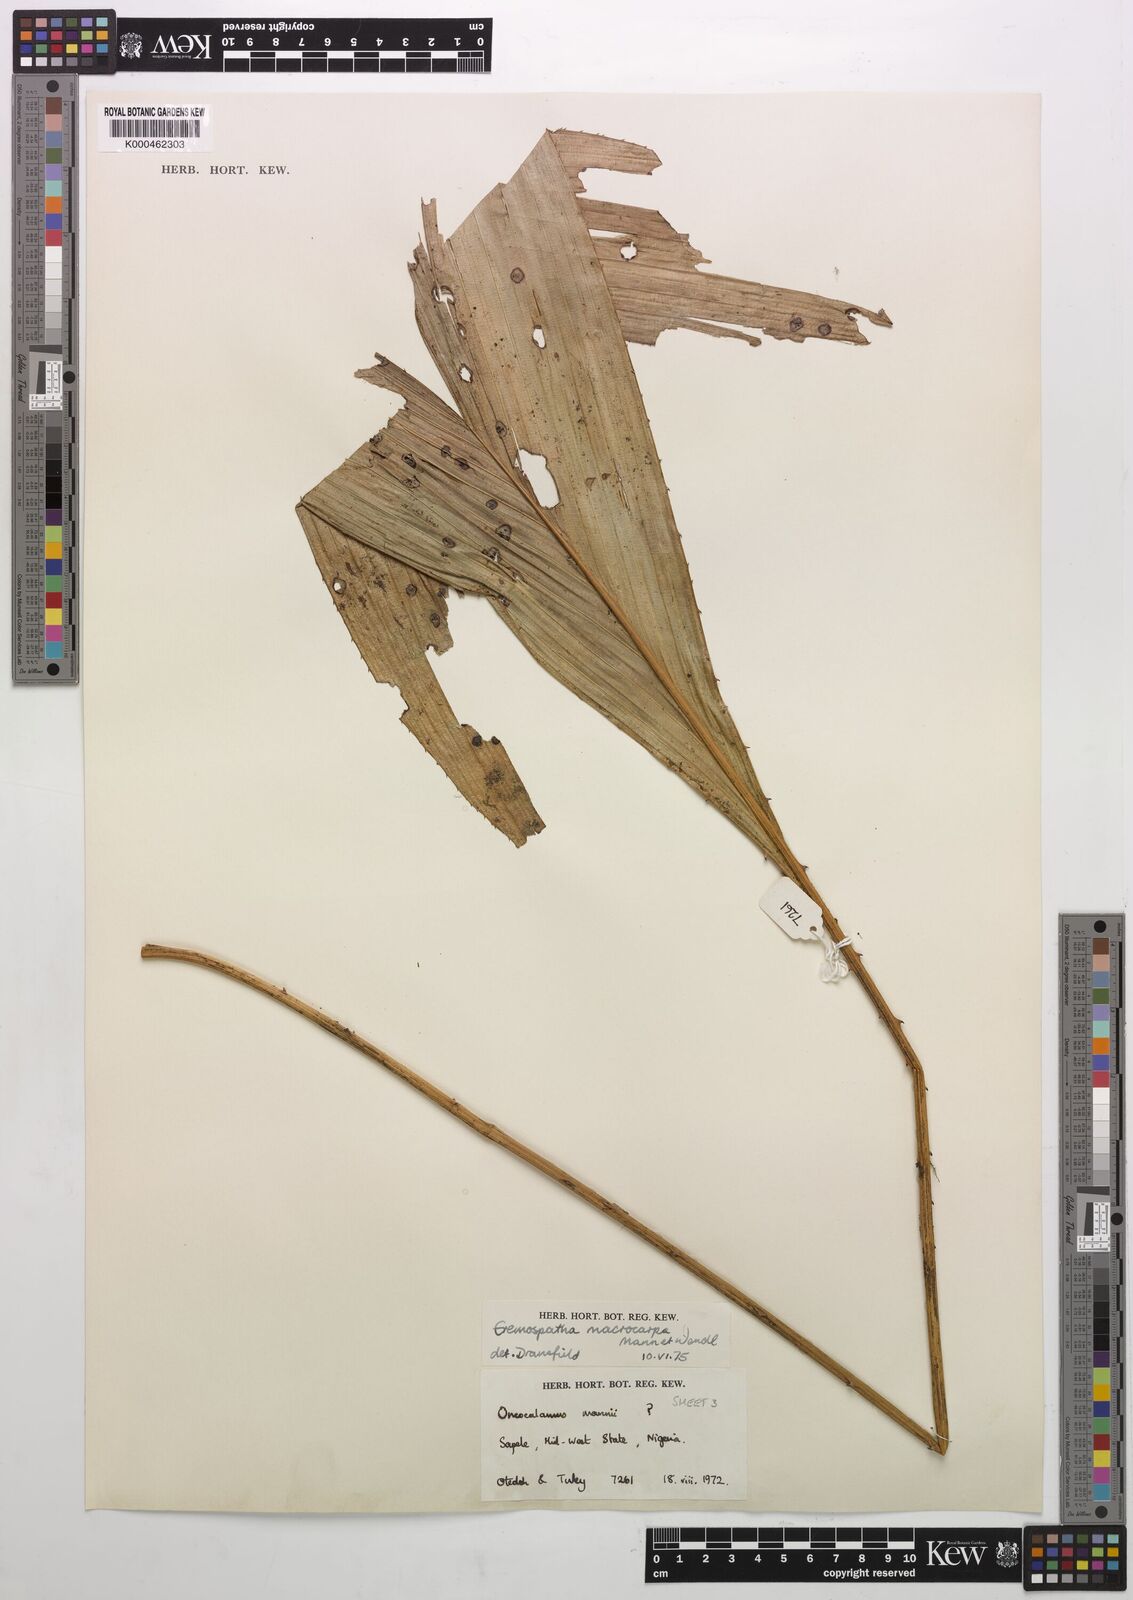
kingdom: Plantae
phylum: Tracheophyta
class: Liliopsida
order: Arecales
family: Arecaceae
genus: Eremospatha
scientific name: Eremospatha
